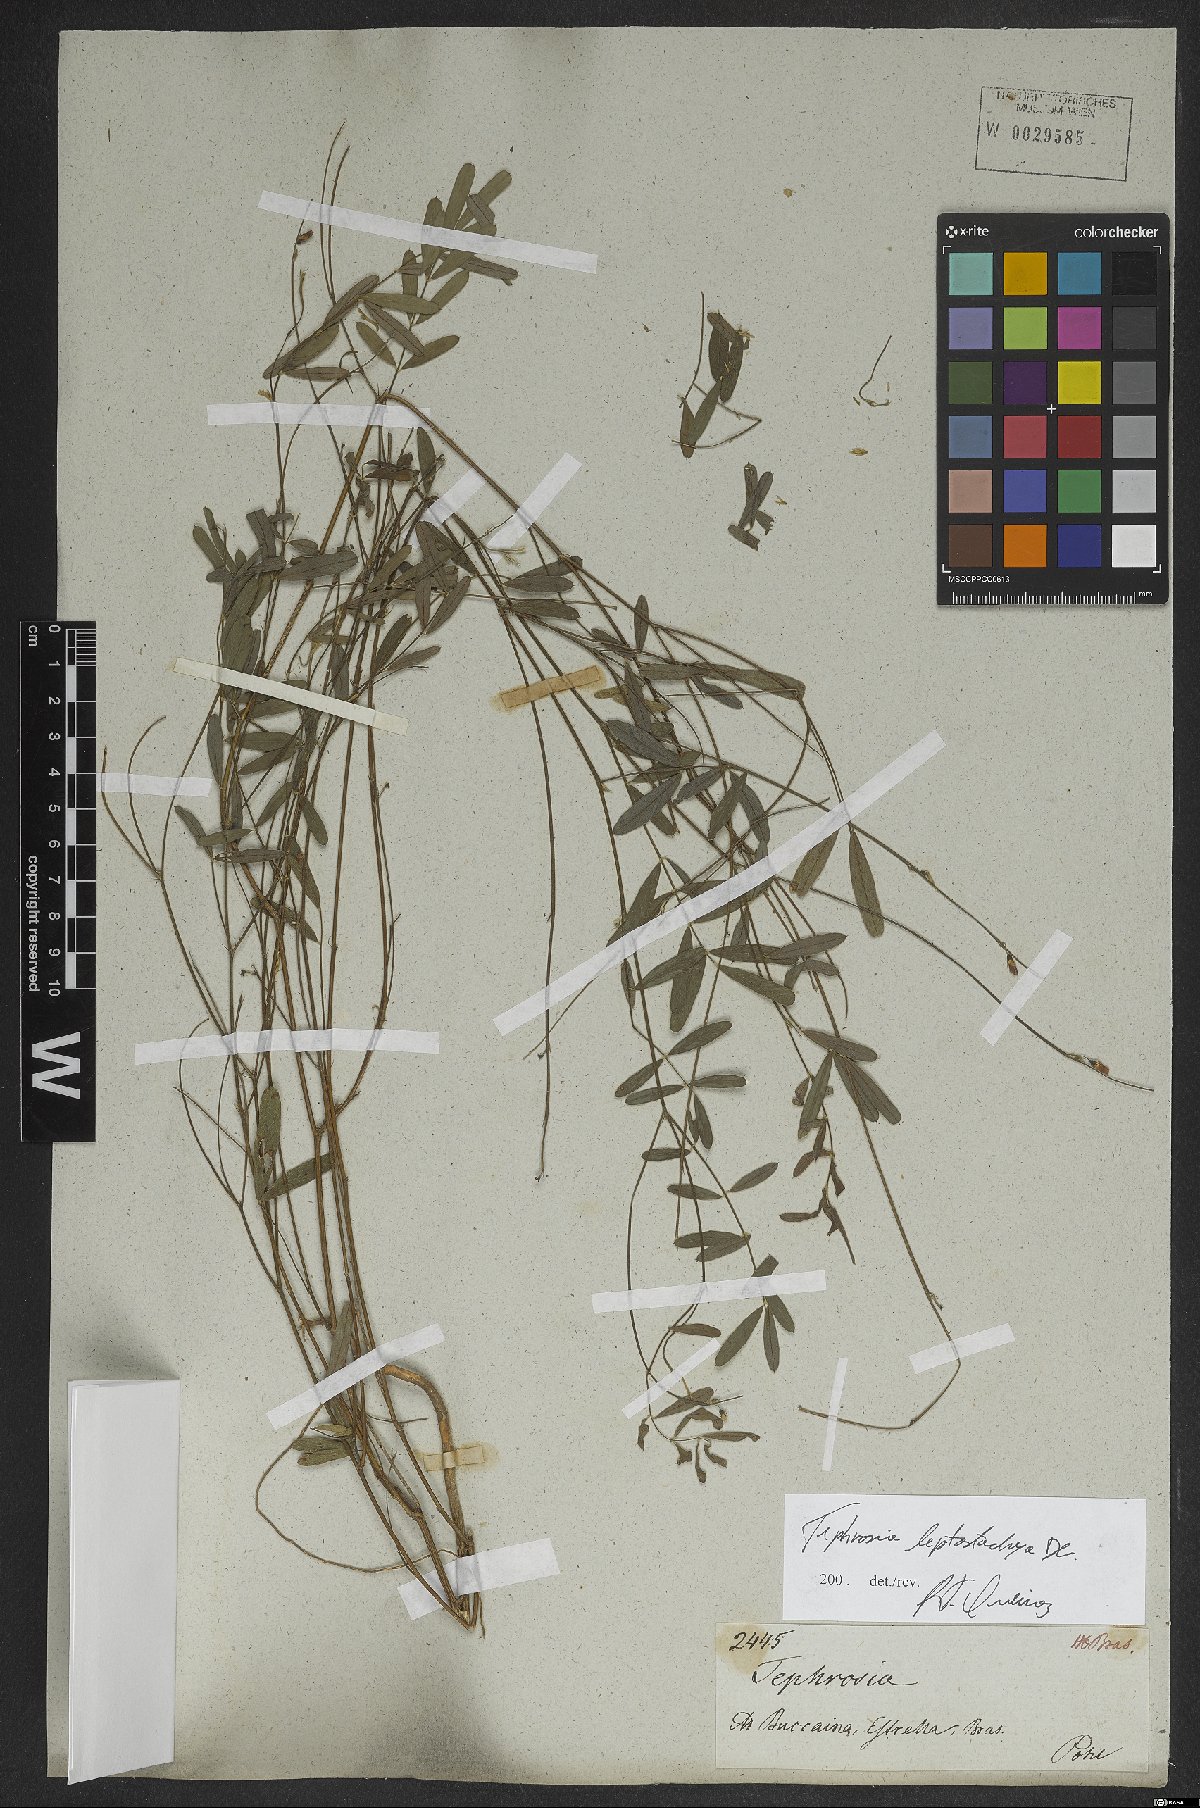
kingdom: Plantae
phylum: Tracheophyta
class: Magnoliopsida
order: Fabales
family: Fabaceae
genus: Tephrosia
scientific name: Tephrosia purpurea
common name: Fishpoison
